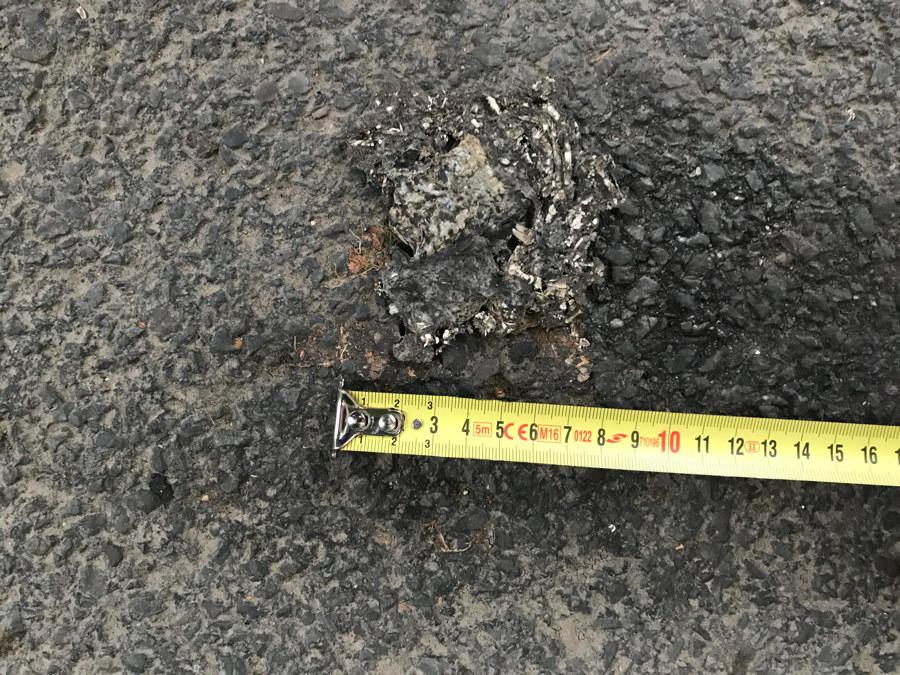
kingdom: Animalia
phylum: Chordata
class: Amphibia
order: Anura
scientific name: Anura
